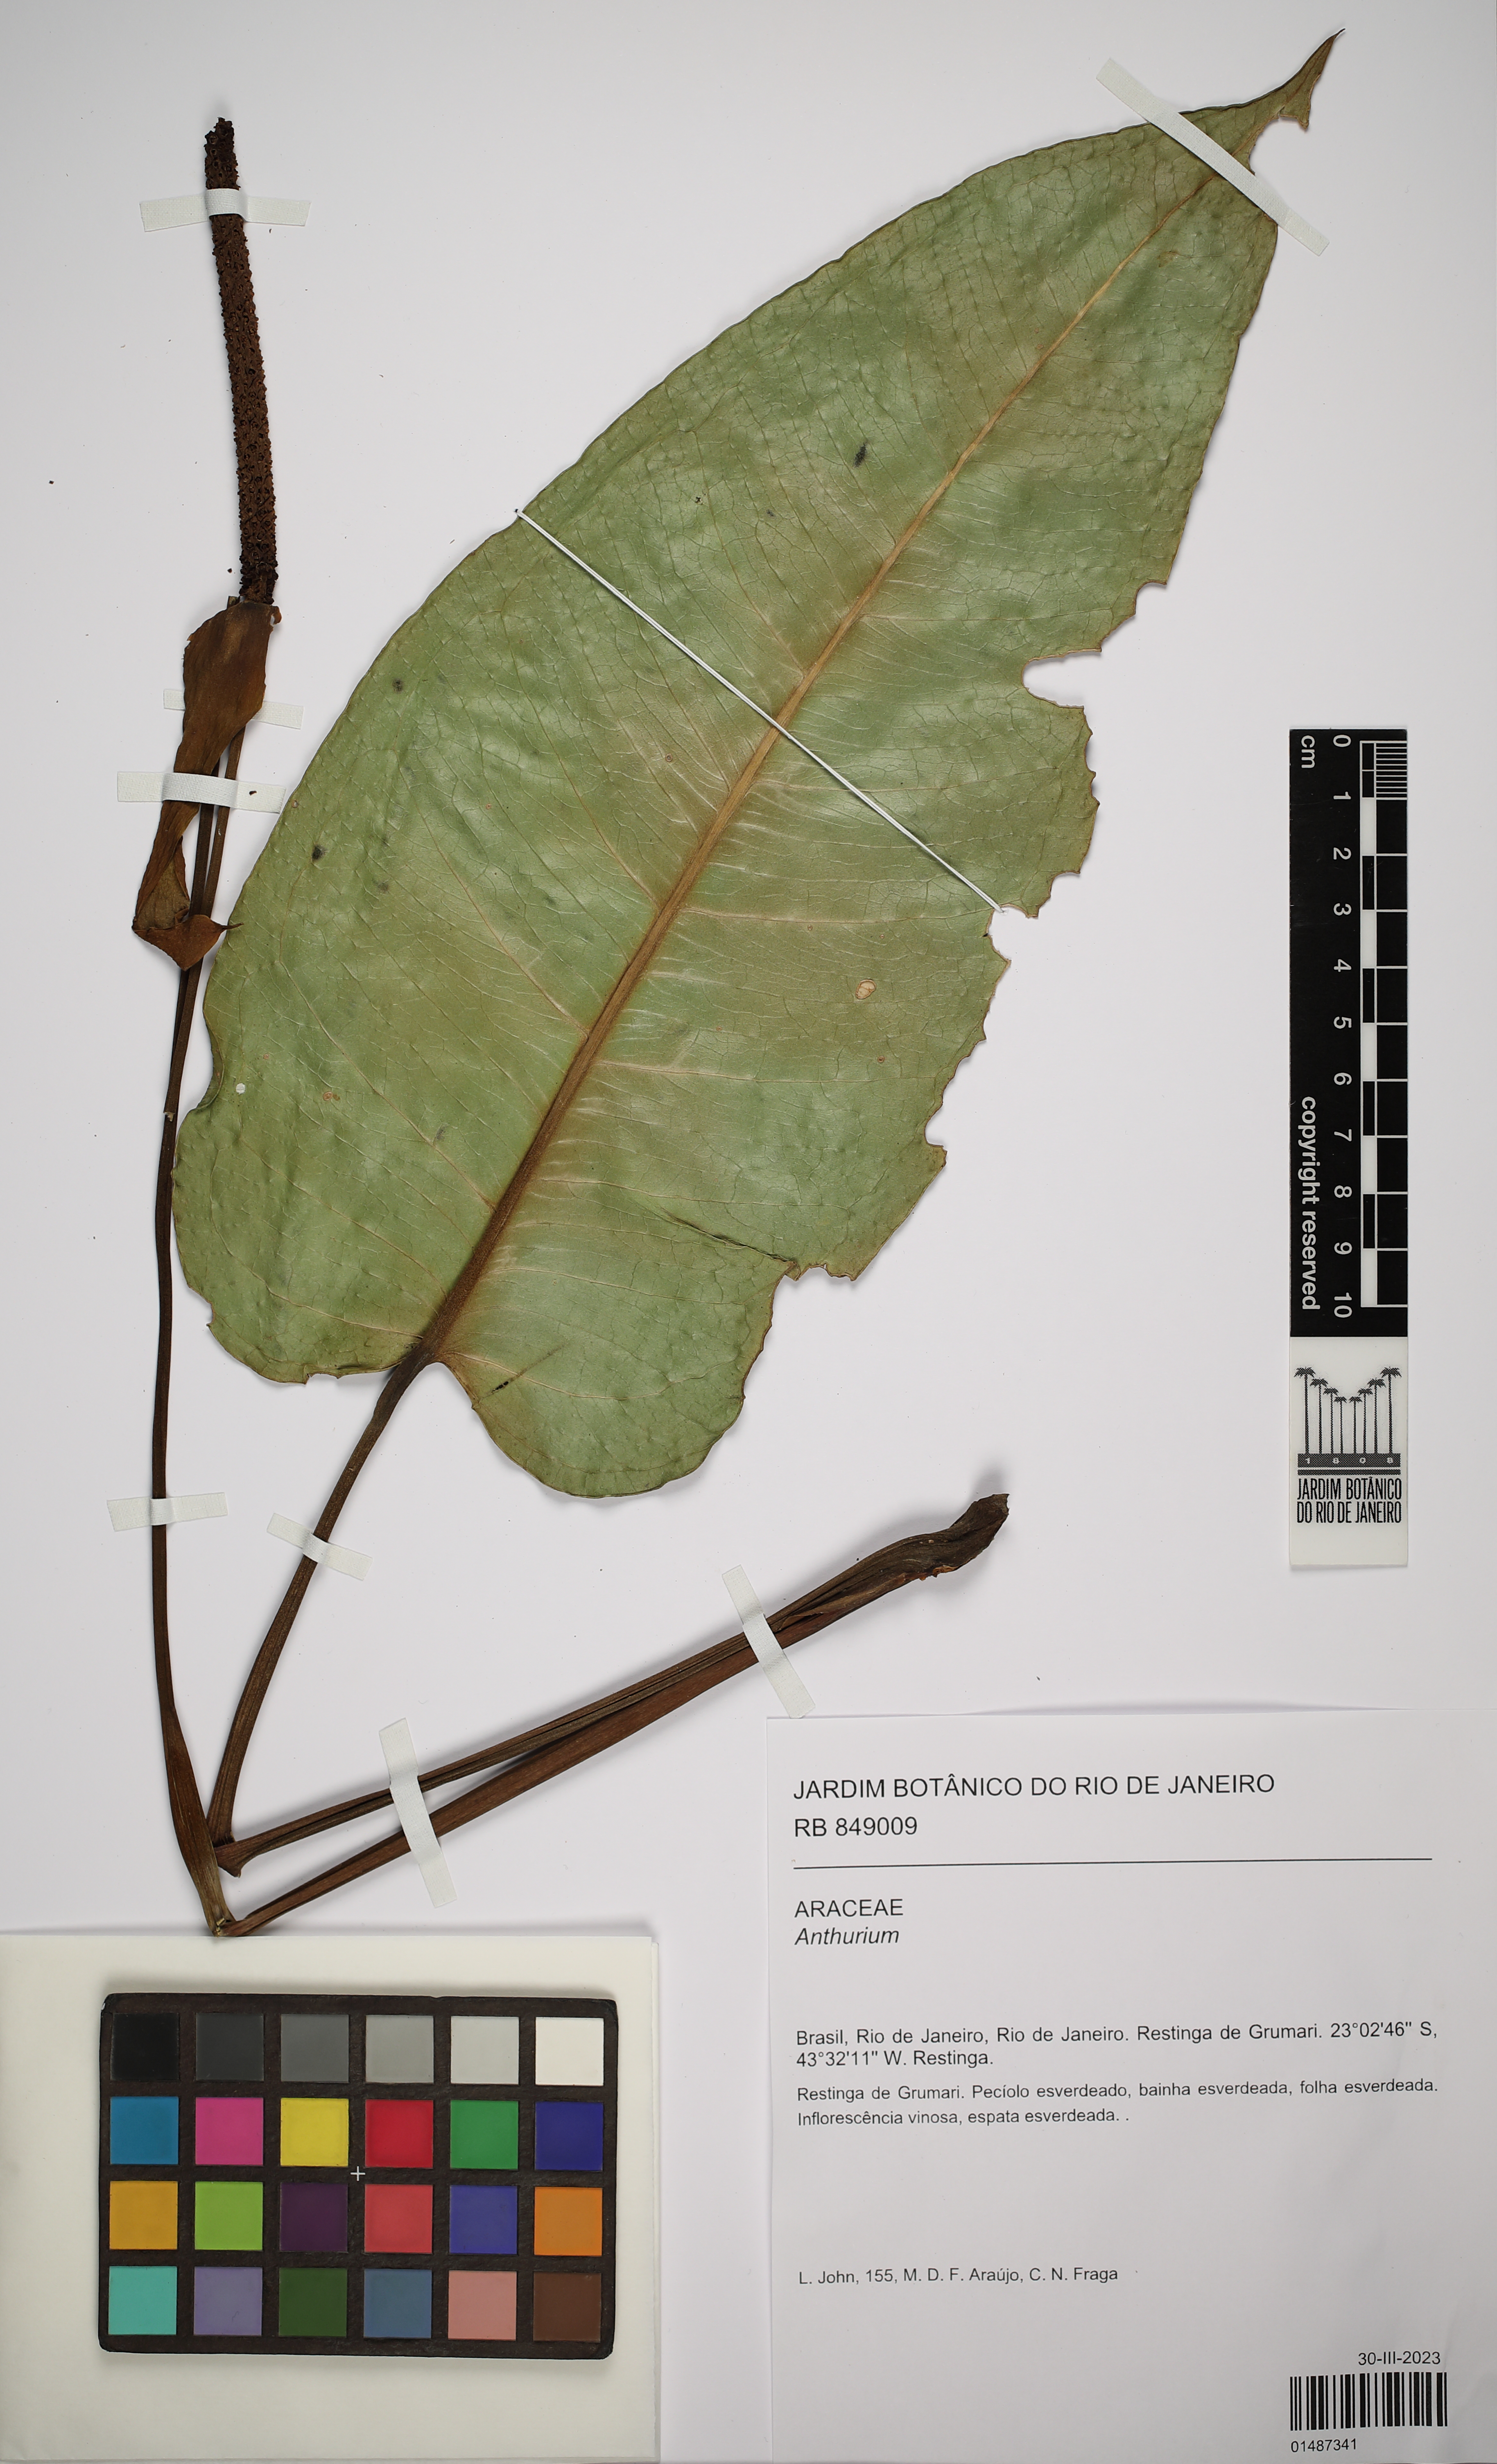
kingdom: Plantae
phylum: Tracheophyta
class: Liliopsida
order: Alismatales
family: Araceae
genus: Anthurium
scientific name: Anthurium
